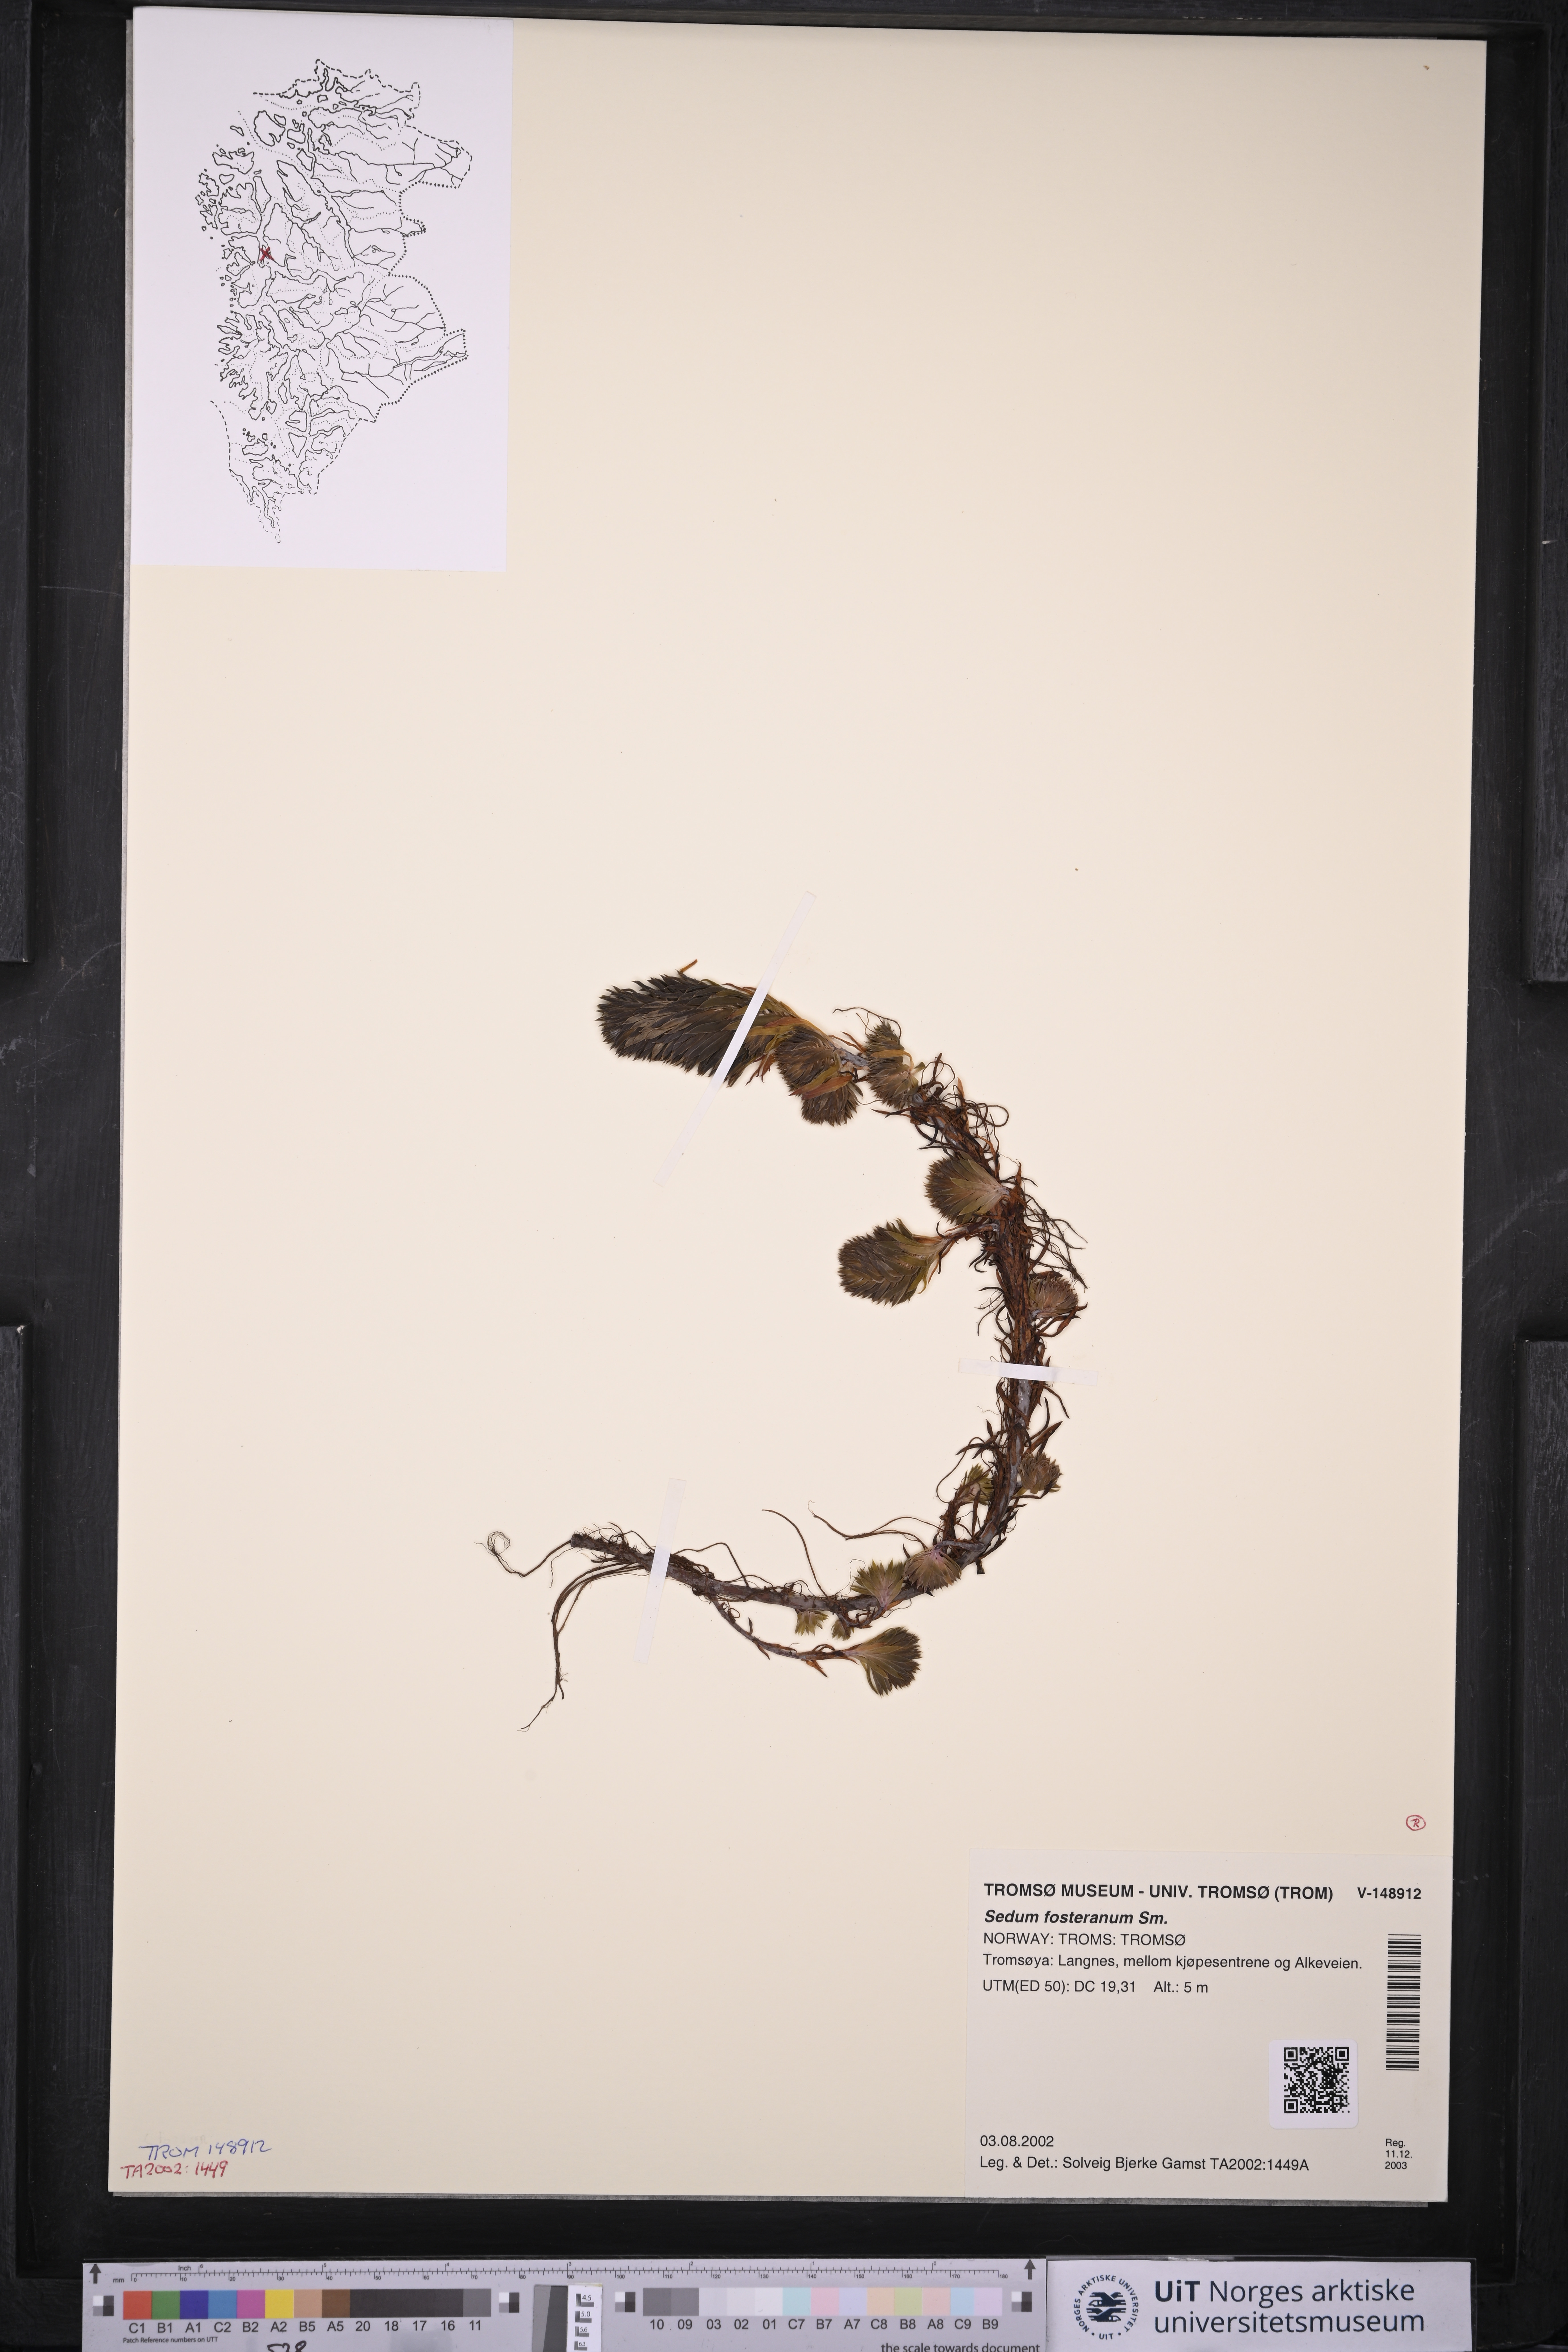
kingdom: Plantae
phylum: Tracheophyta
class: Magnoliopsida
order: Saxifragales
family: Crassulaceae
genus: Petrosedum
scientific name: Petrosedum forsterianum
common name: Forster's stonecrop
